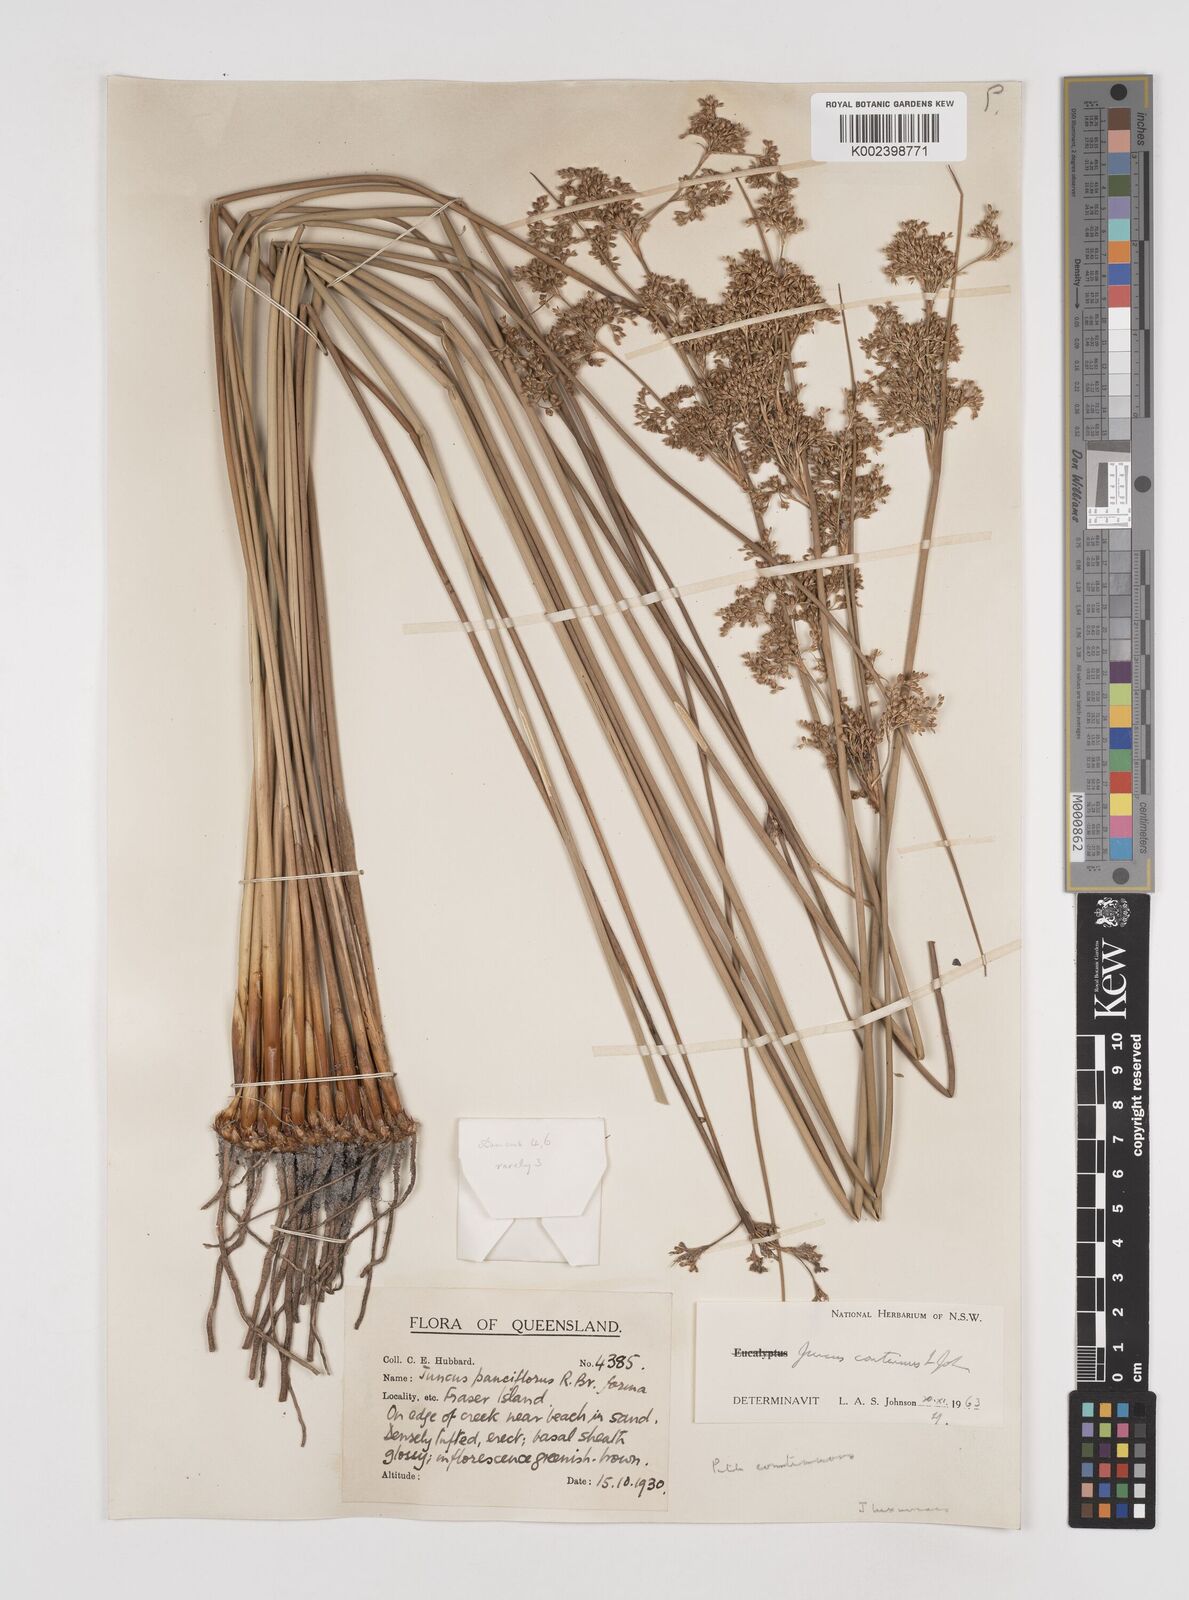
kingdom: Plantae
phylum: Tracheophyta
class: Liliopsida
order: Poales
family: Juncaceae
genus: Juncus
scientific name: Juncus continuus
